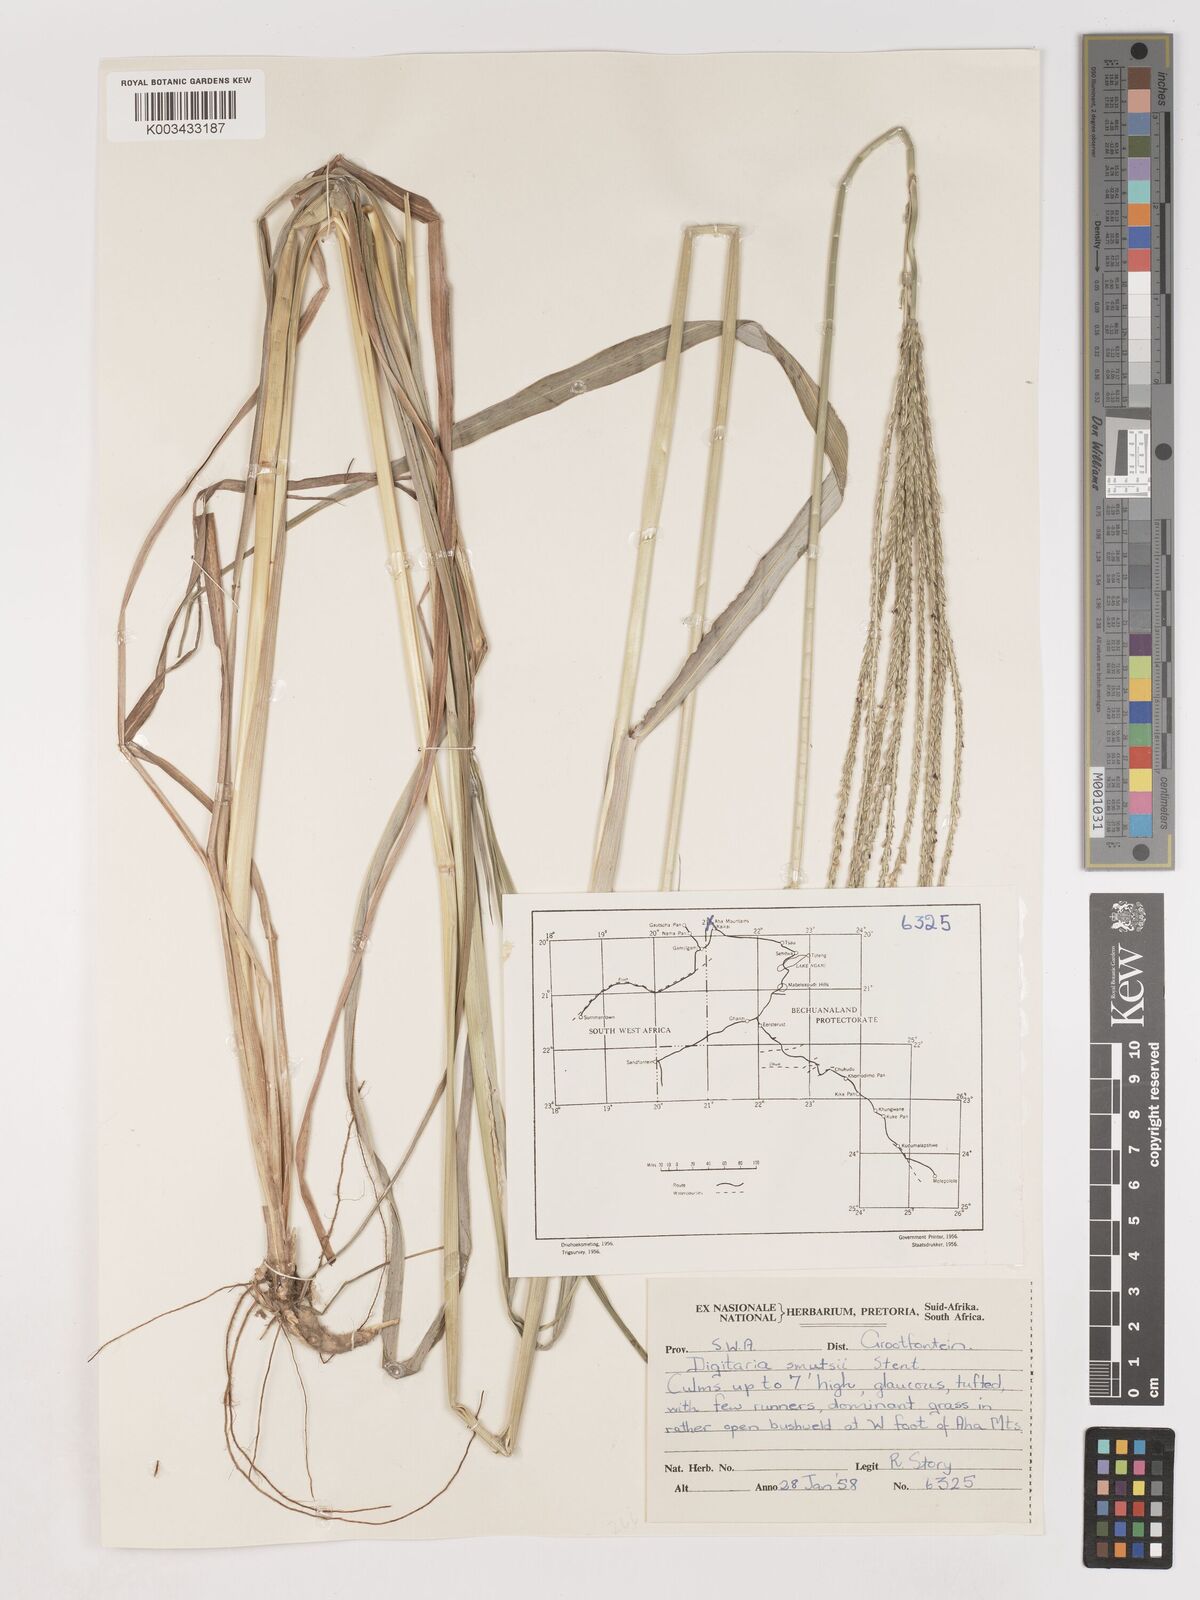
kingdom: Plantae
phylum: Tracheophyta
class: Liliopsida
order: Poales
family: Poaceae
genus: Digitaria
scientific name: Digitaria eriantha
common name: Digitgrass
